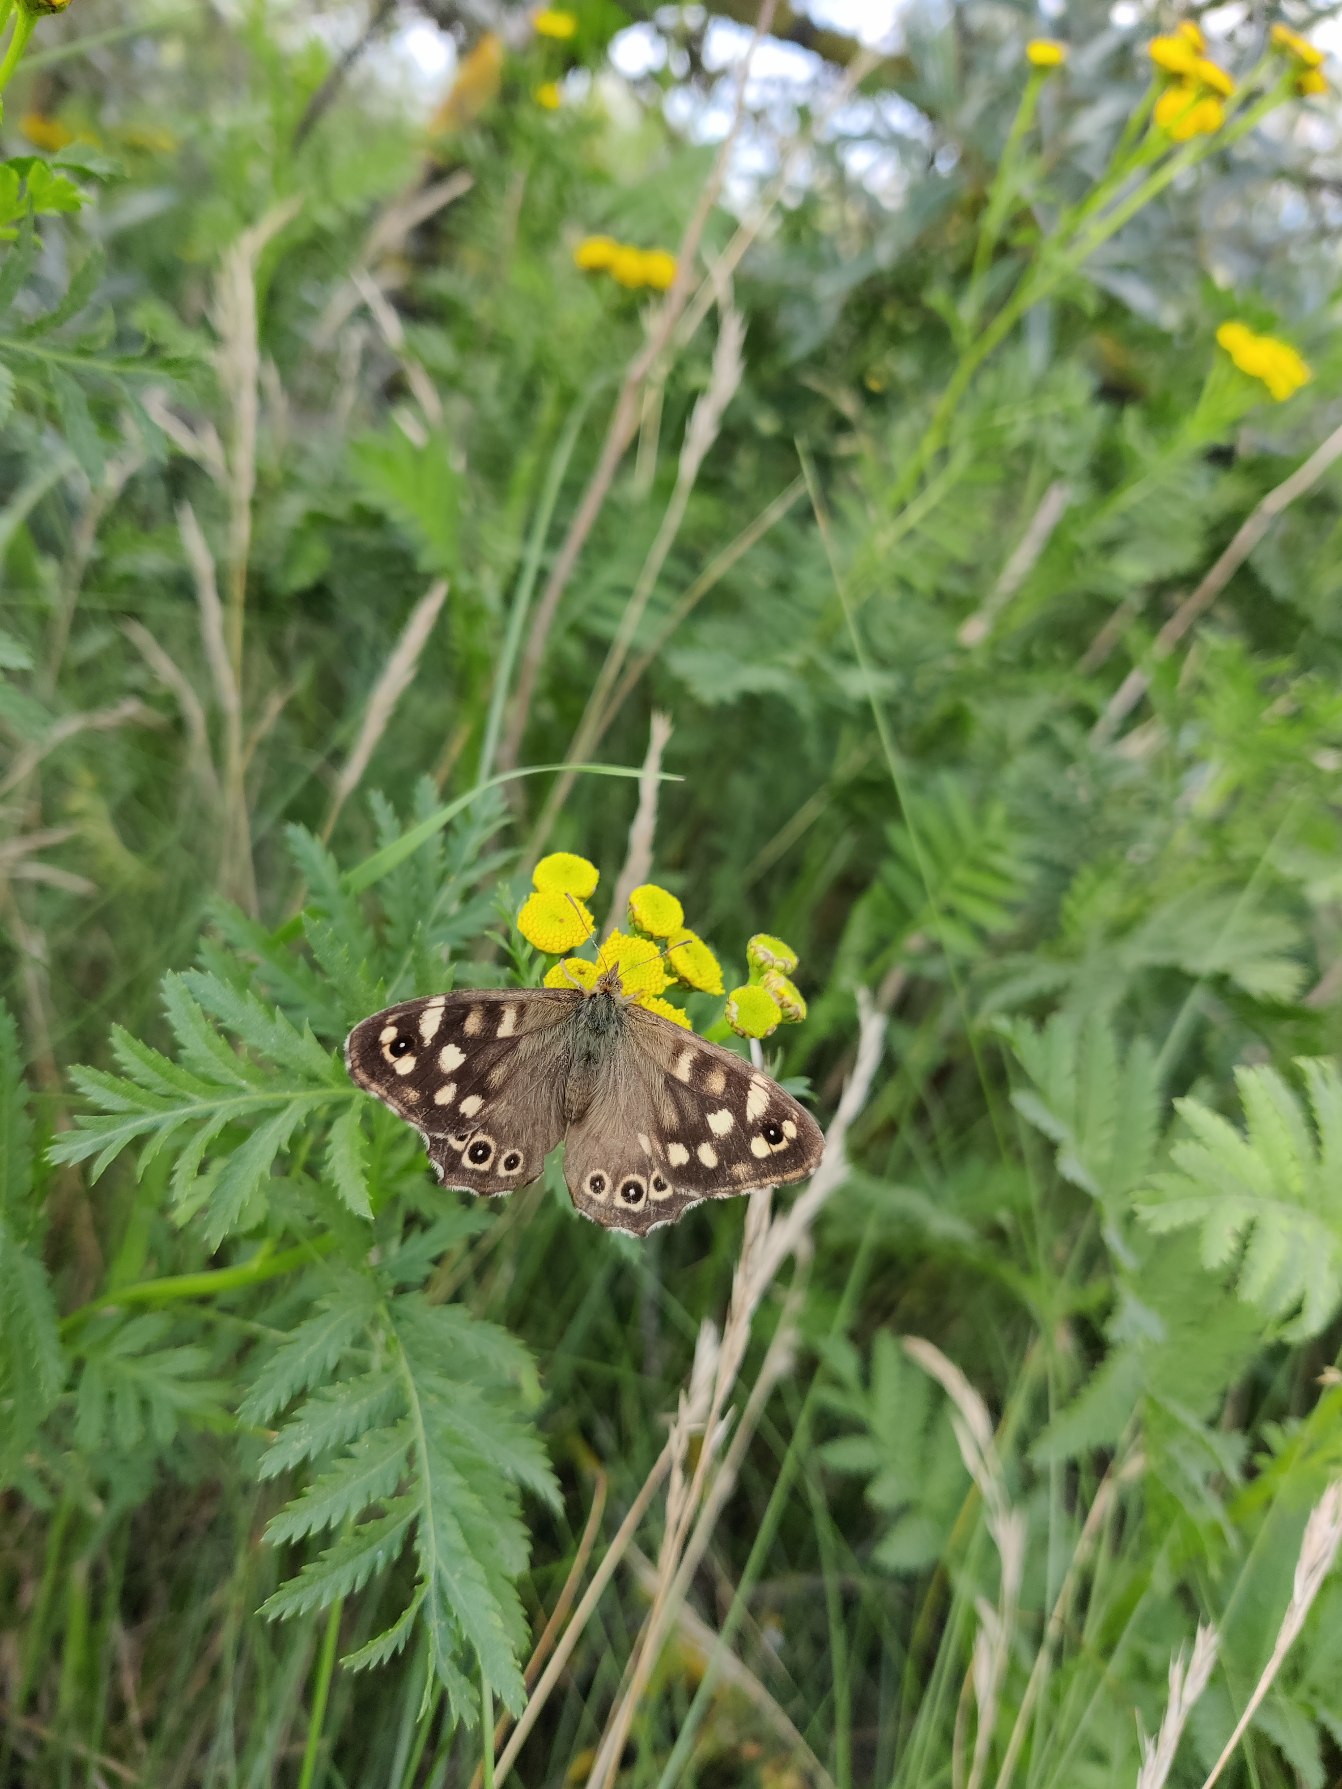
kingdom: Animalia
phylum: Arthropoda
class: Insecta
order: Lepidoptera
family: Nymphalidae
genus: Pararge
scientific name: Pararge aegeria
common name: Skovrandøje
